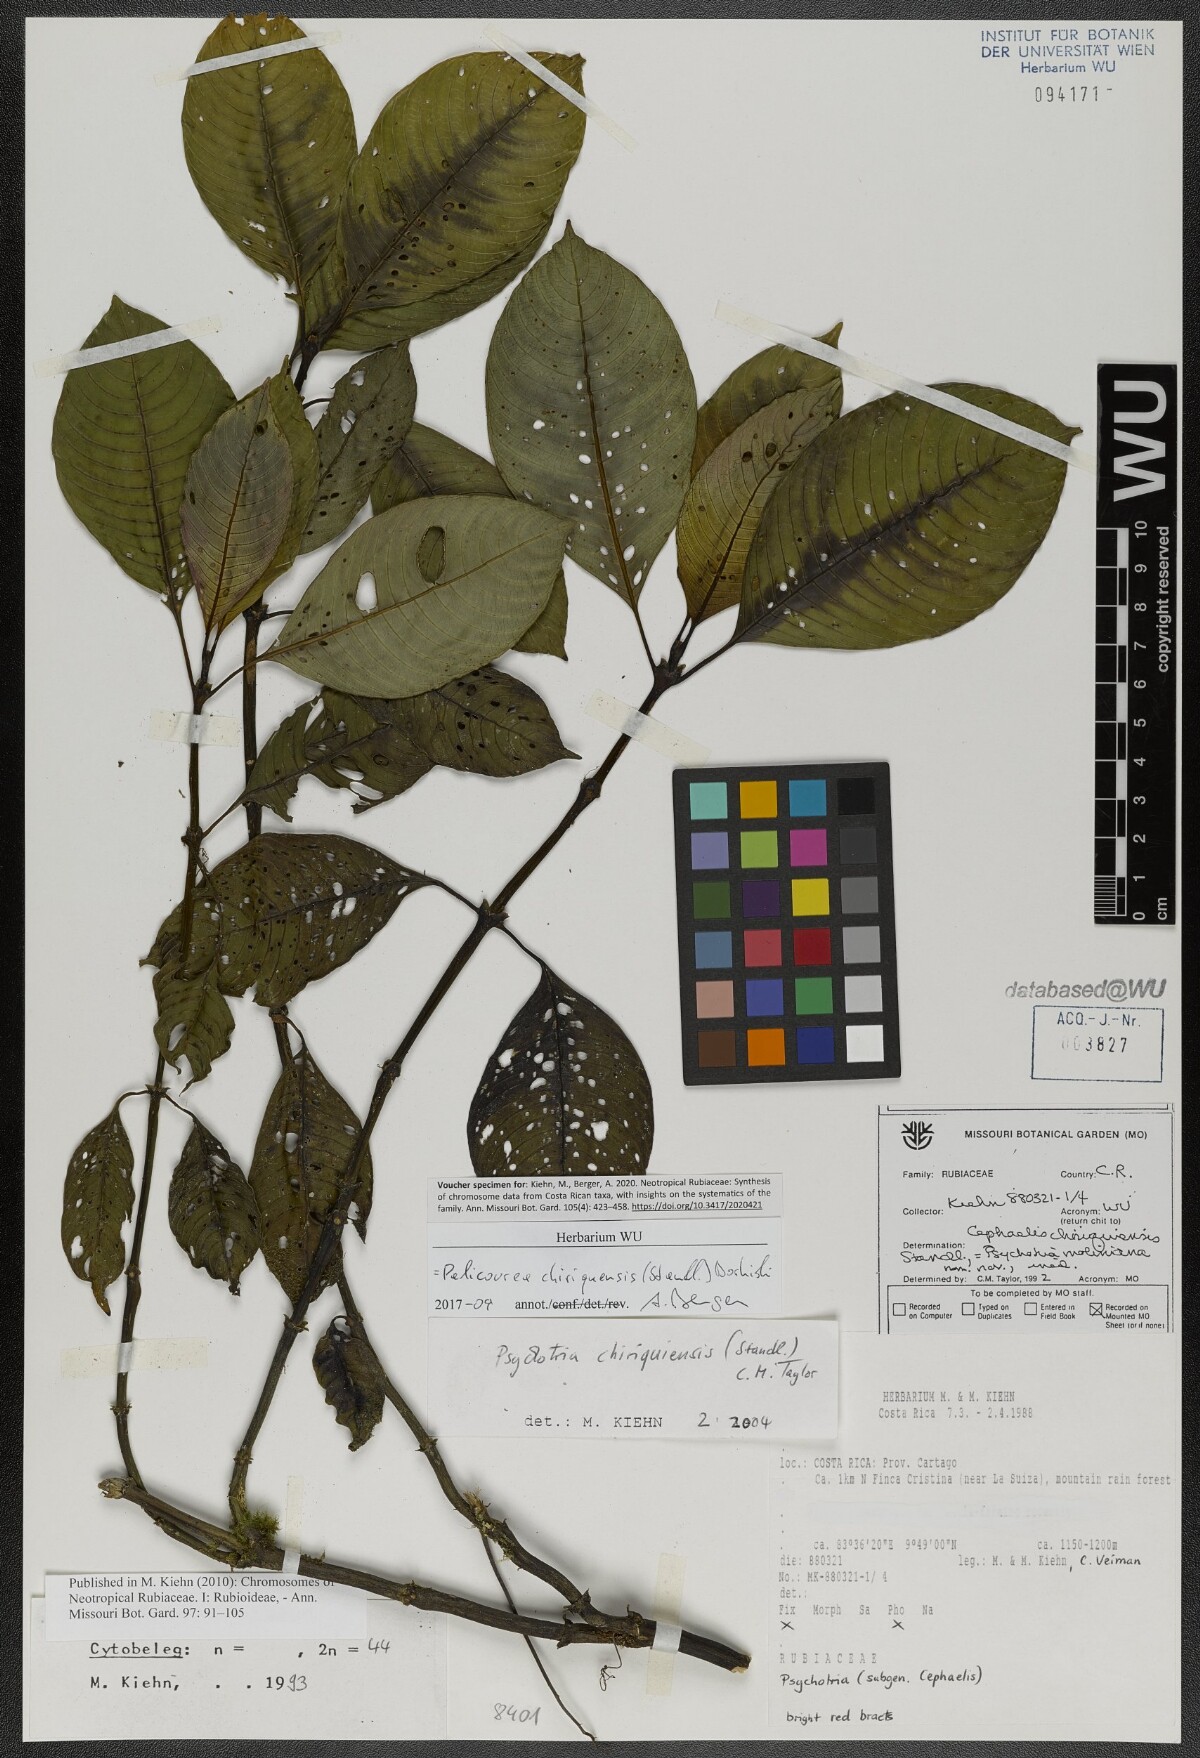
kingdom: Plantae
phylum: Tracheophyta
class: Magnoliopsida
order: Gentianales
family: Rubiaceae
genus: Palicourea
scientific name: Palicourea chiriquiensis
